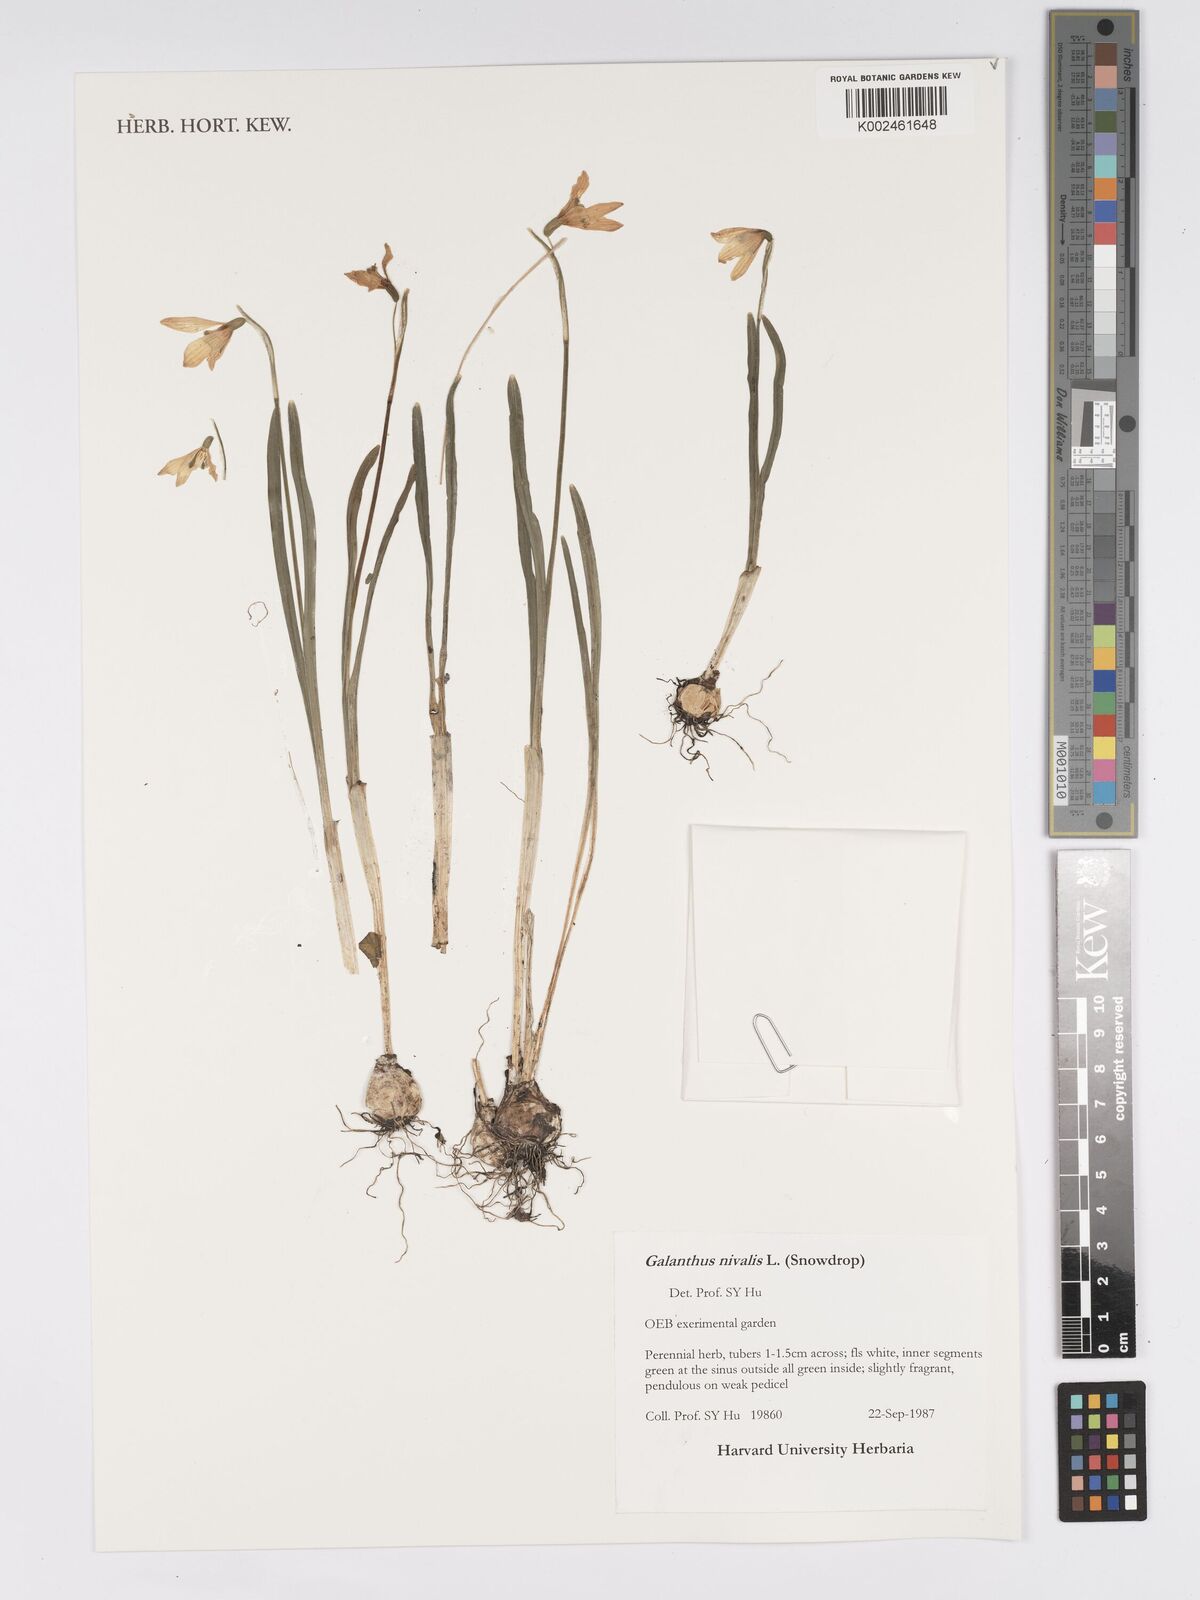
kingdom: Plantae
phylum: Tracheophyta
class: Liliopsida
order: Asparagales
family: Amaryllidaceae
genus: Galanthus
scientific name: Galanthus nivalis
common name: Snowdrop
